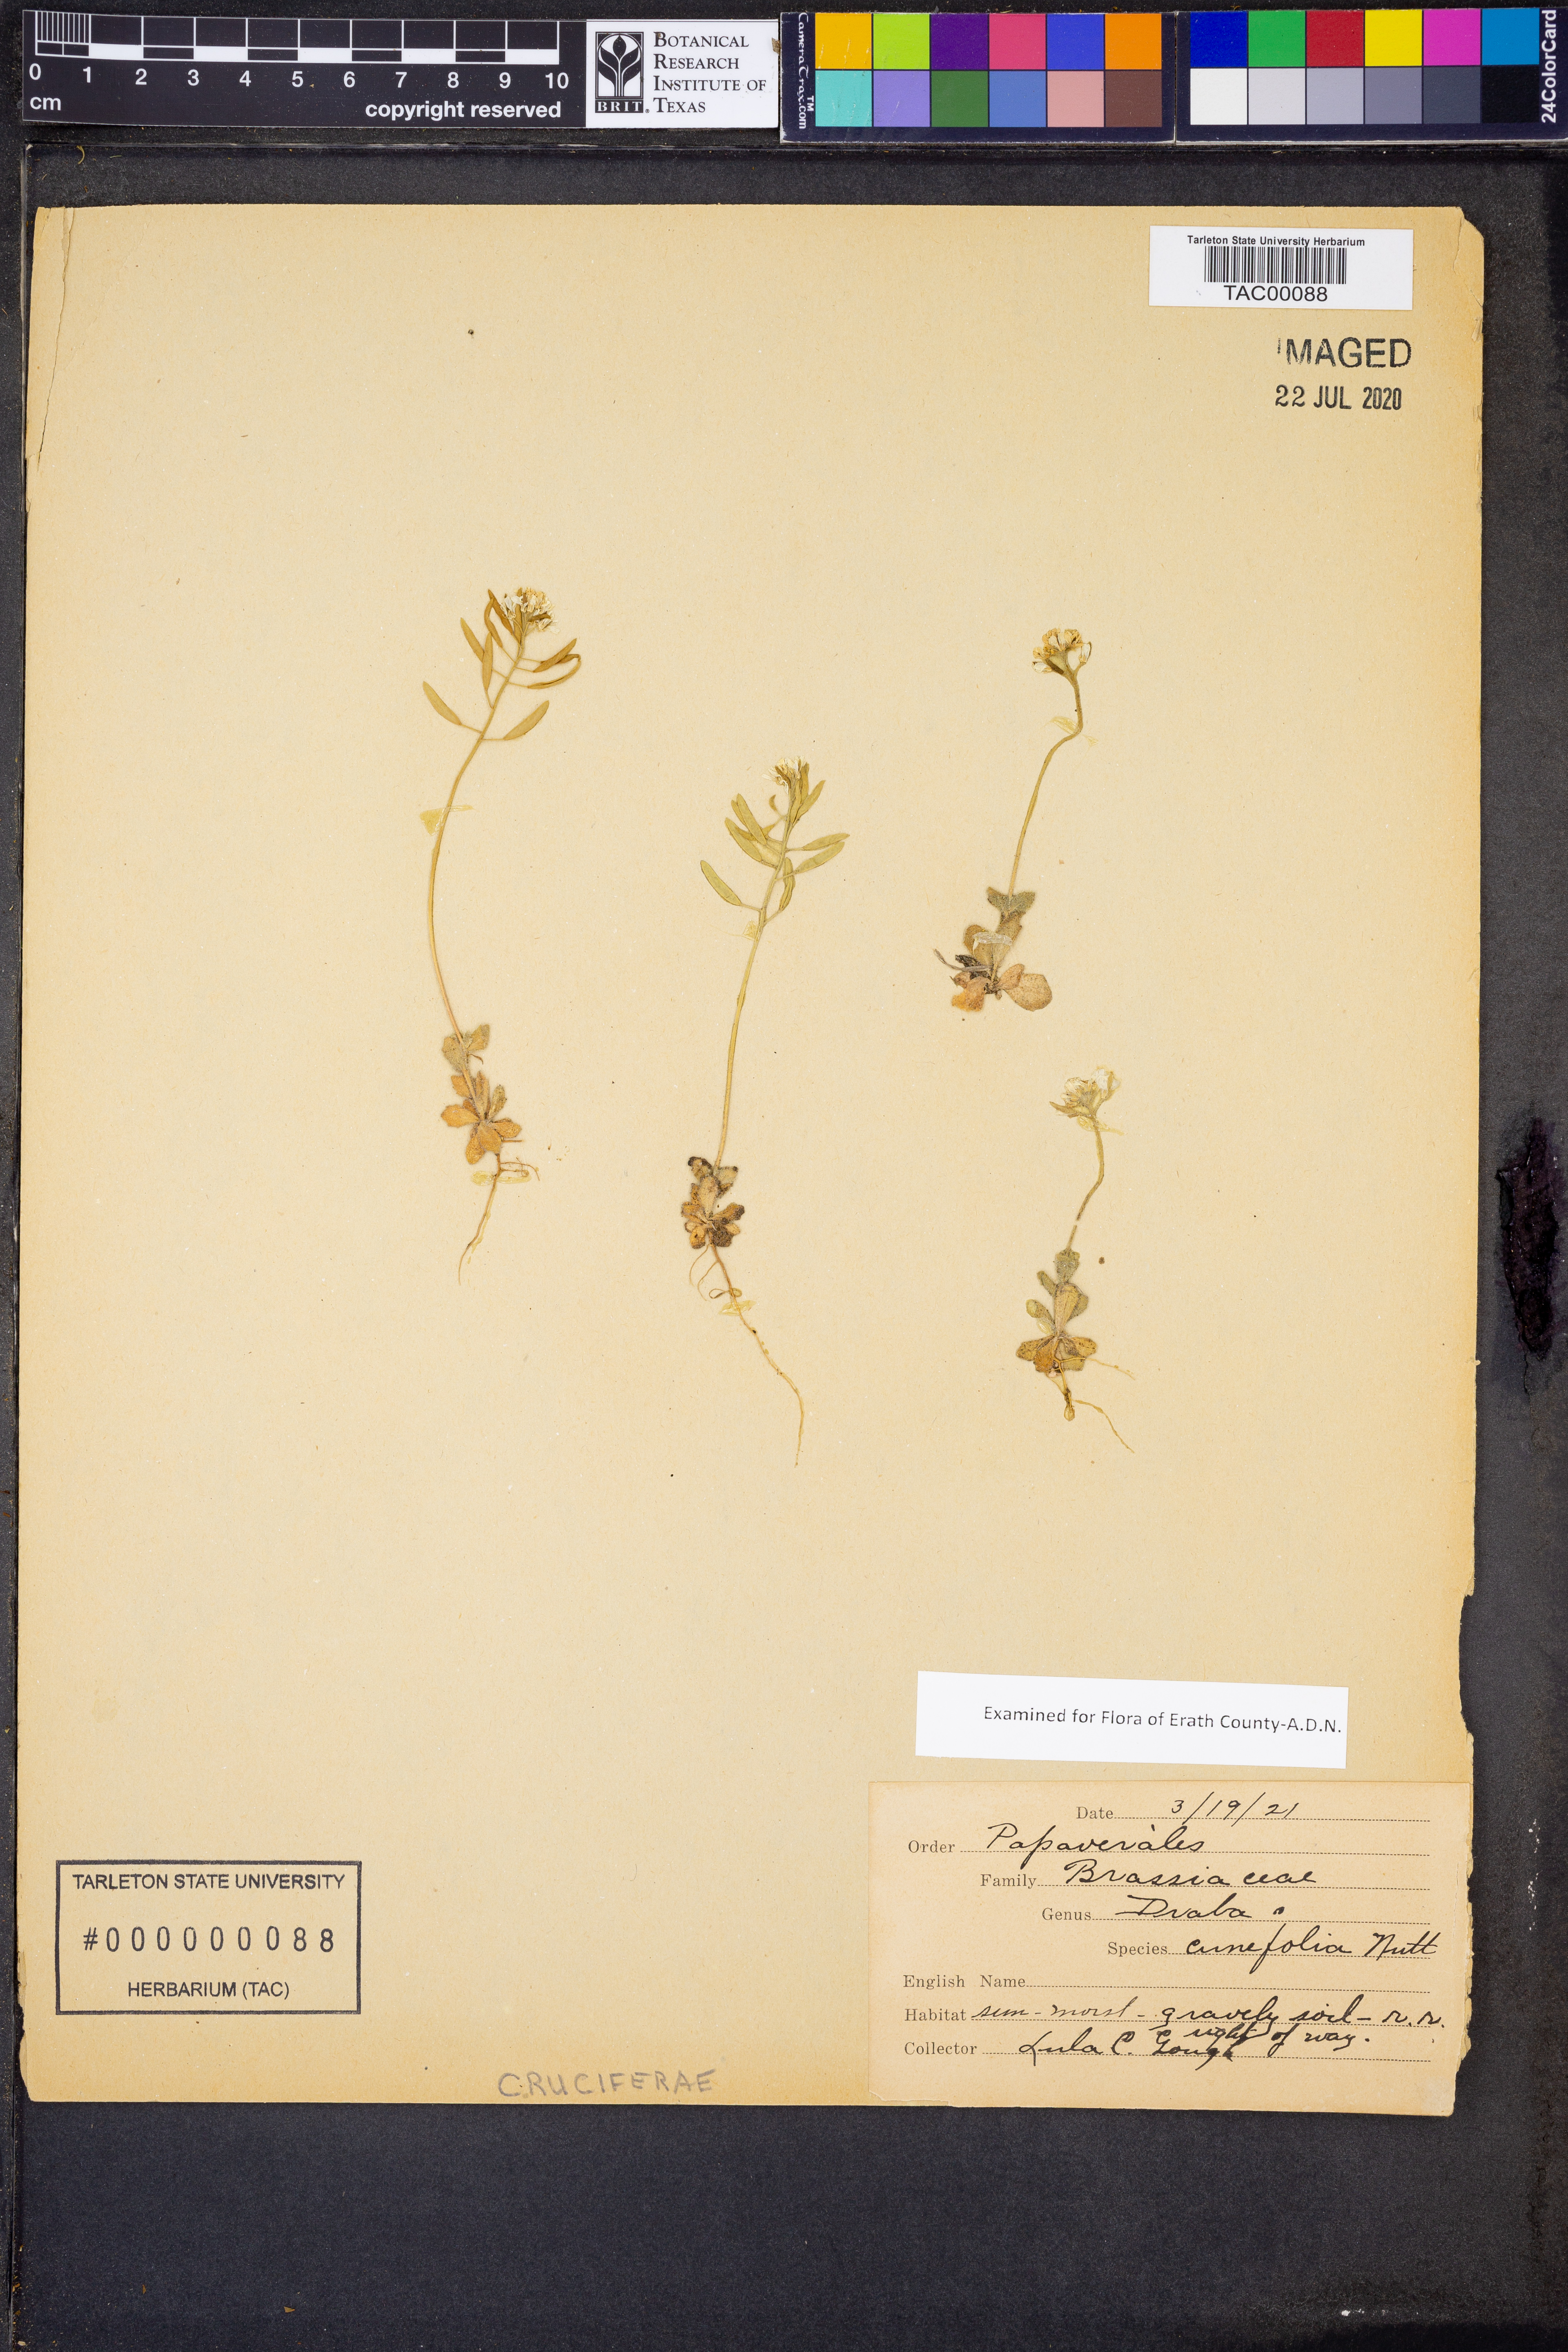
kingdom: Plantae
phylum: Tracheophyta
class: Magnoliopsida
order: Brassicales
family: Brassicaceae
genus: Tomostima
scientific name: Tomostima cuneifolia
